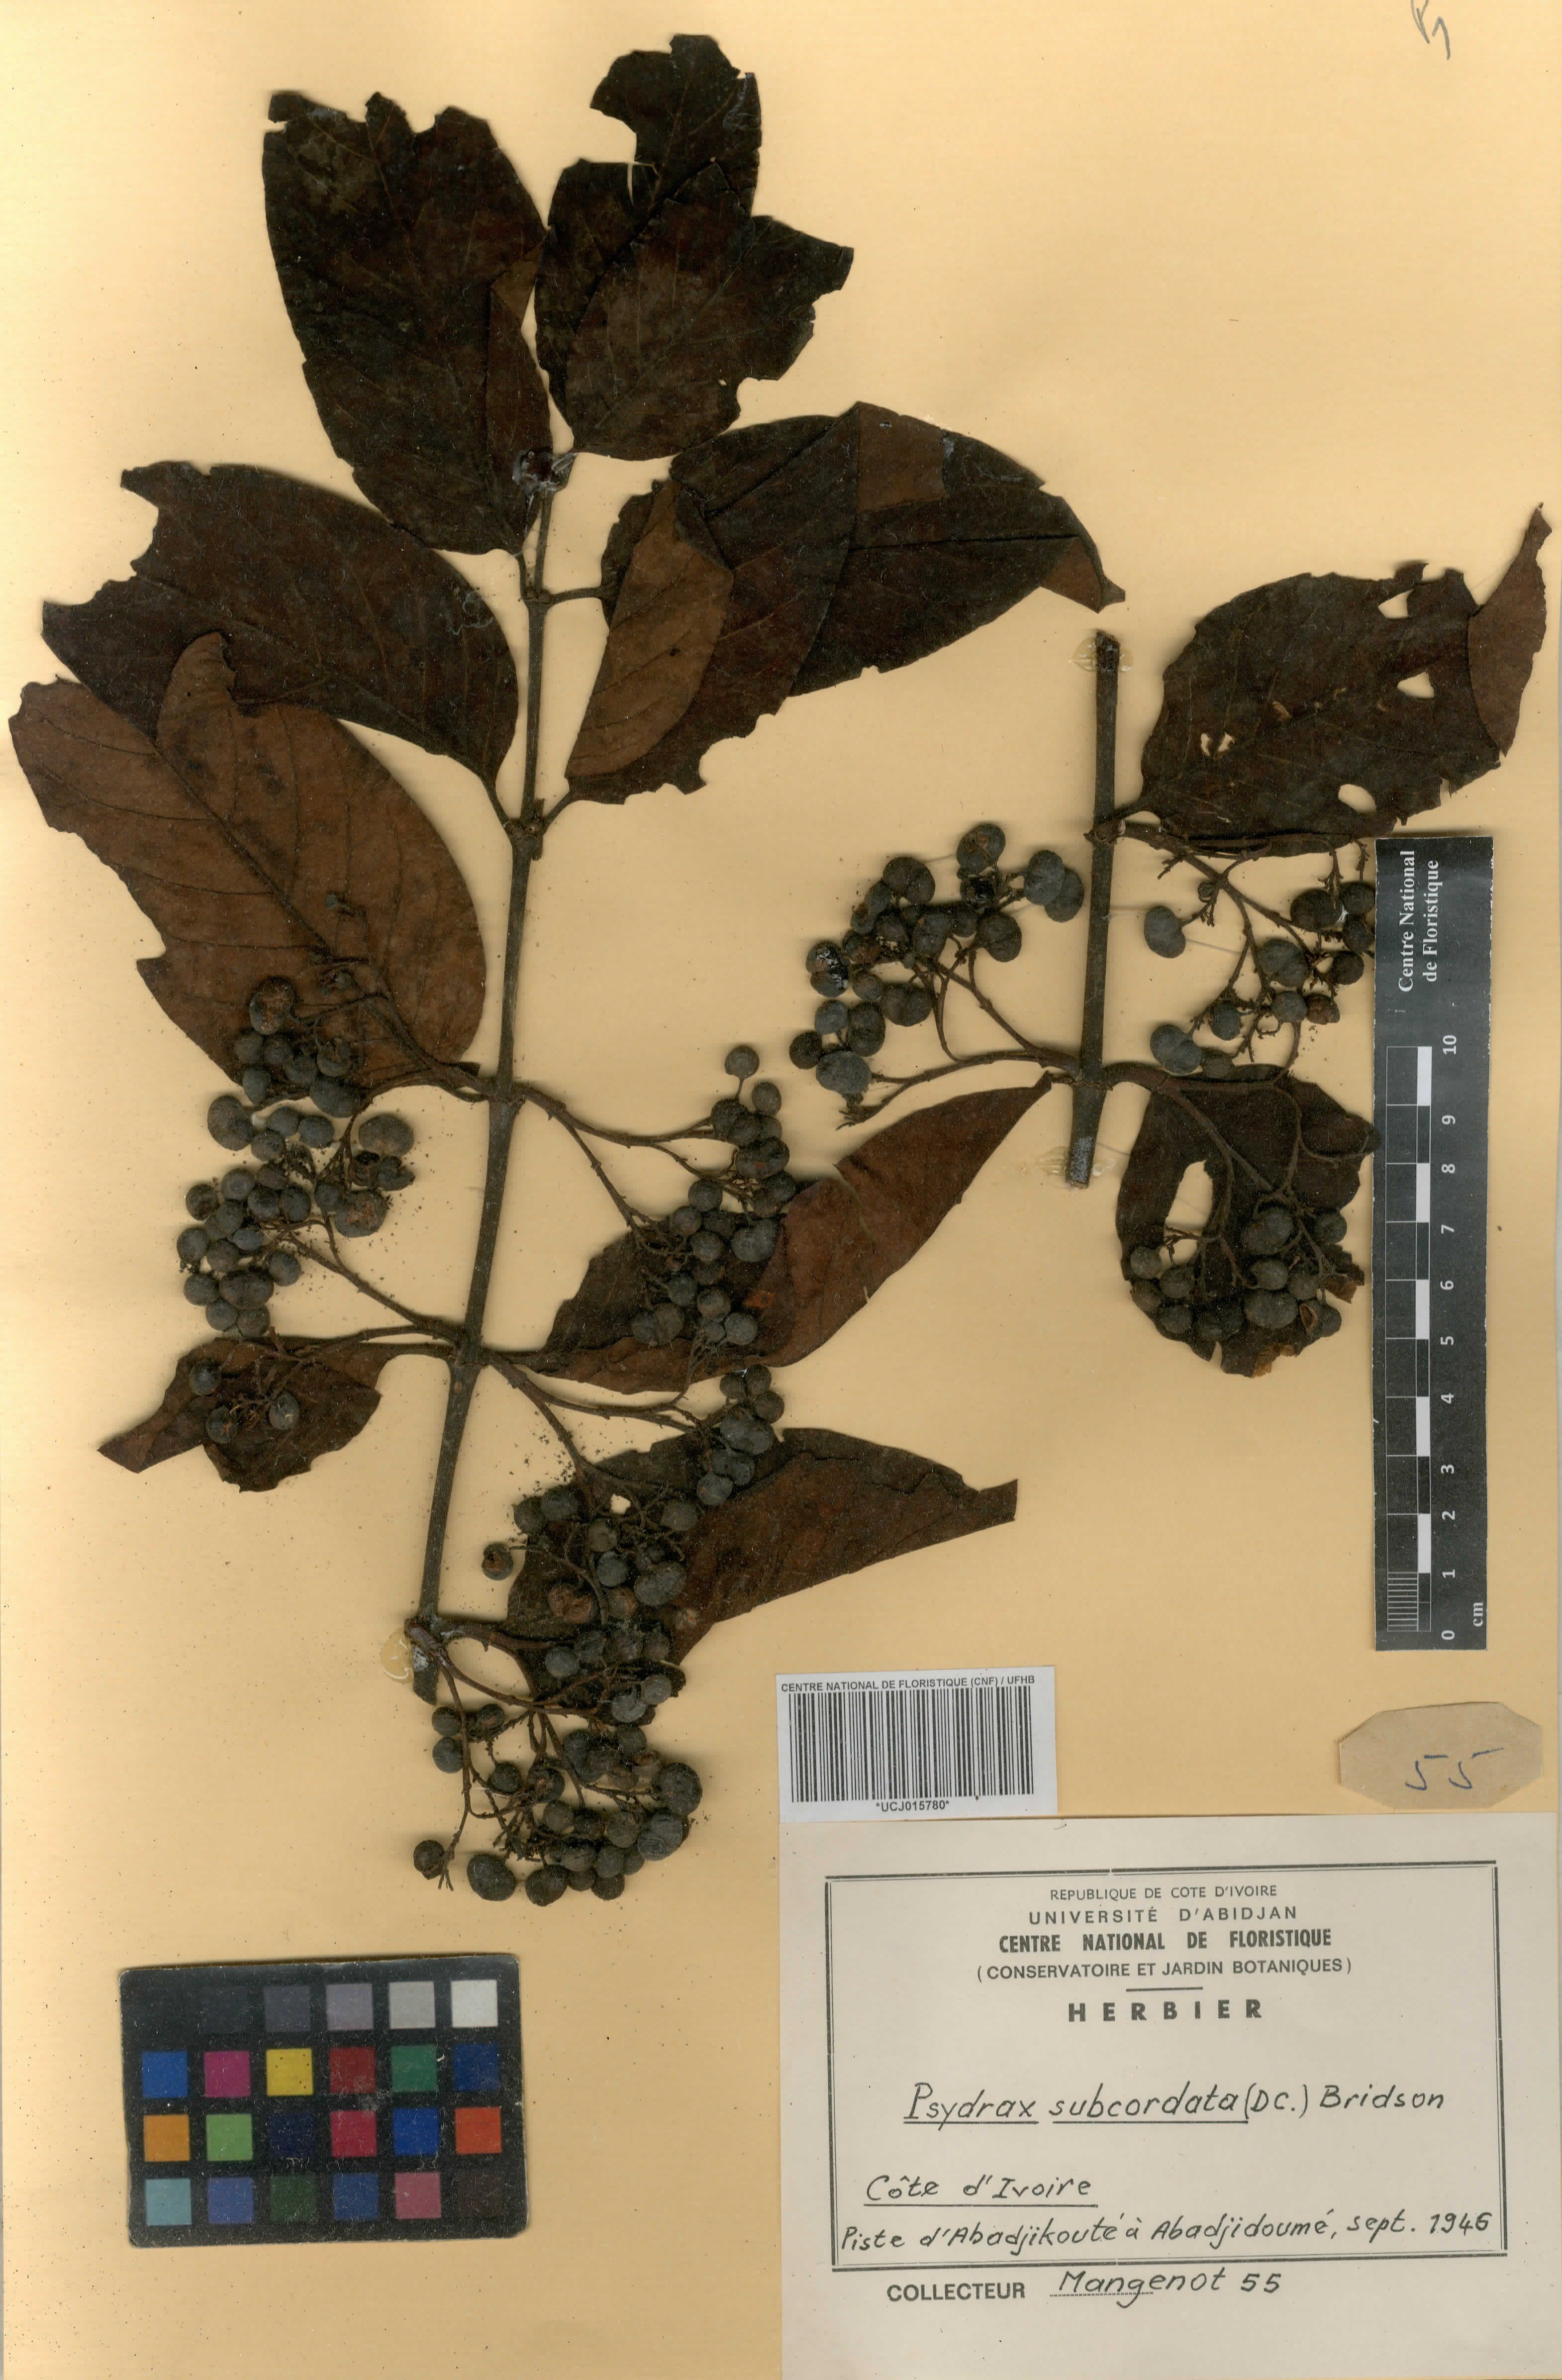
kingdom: Plantae
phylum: Tracheophyta
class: Magnoliopsida
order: Gentianales
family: Rubiaceae
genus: Psydrax
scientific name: Psydrax subcordatus
